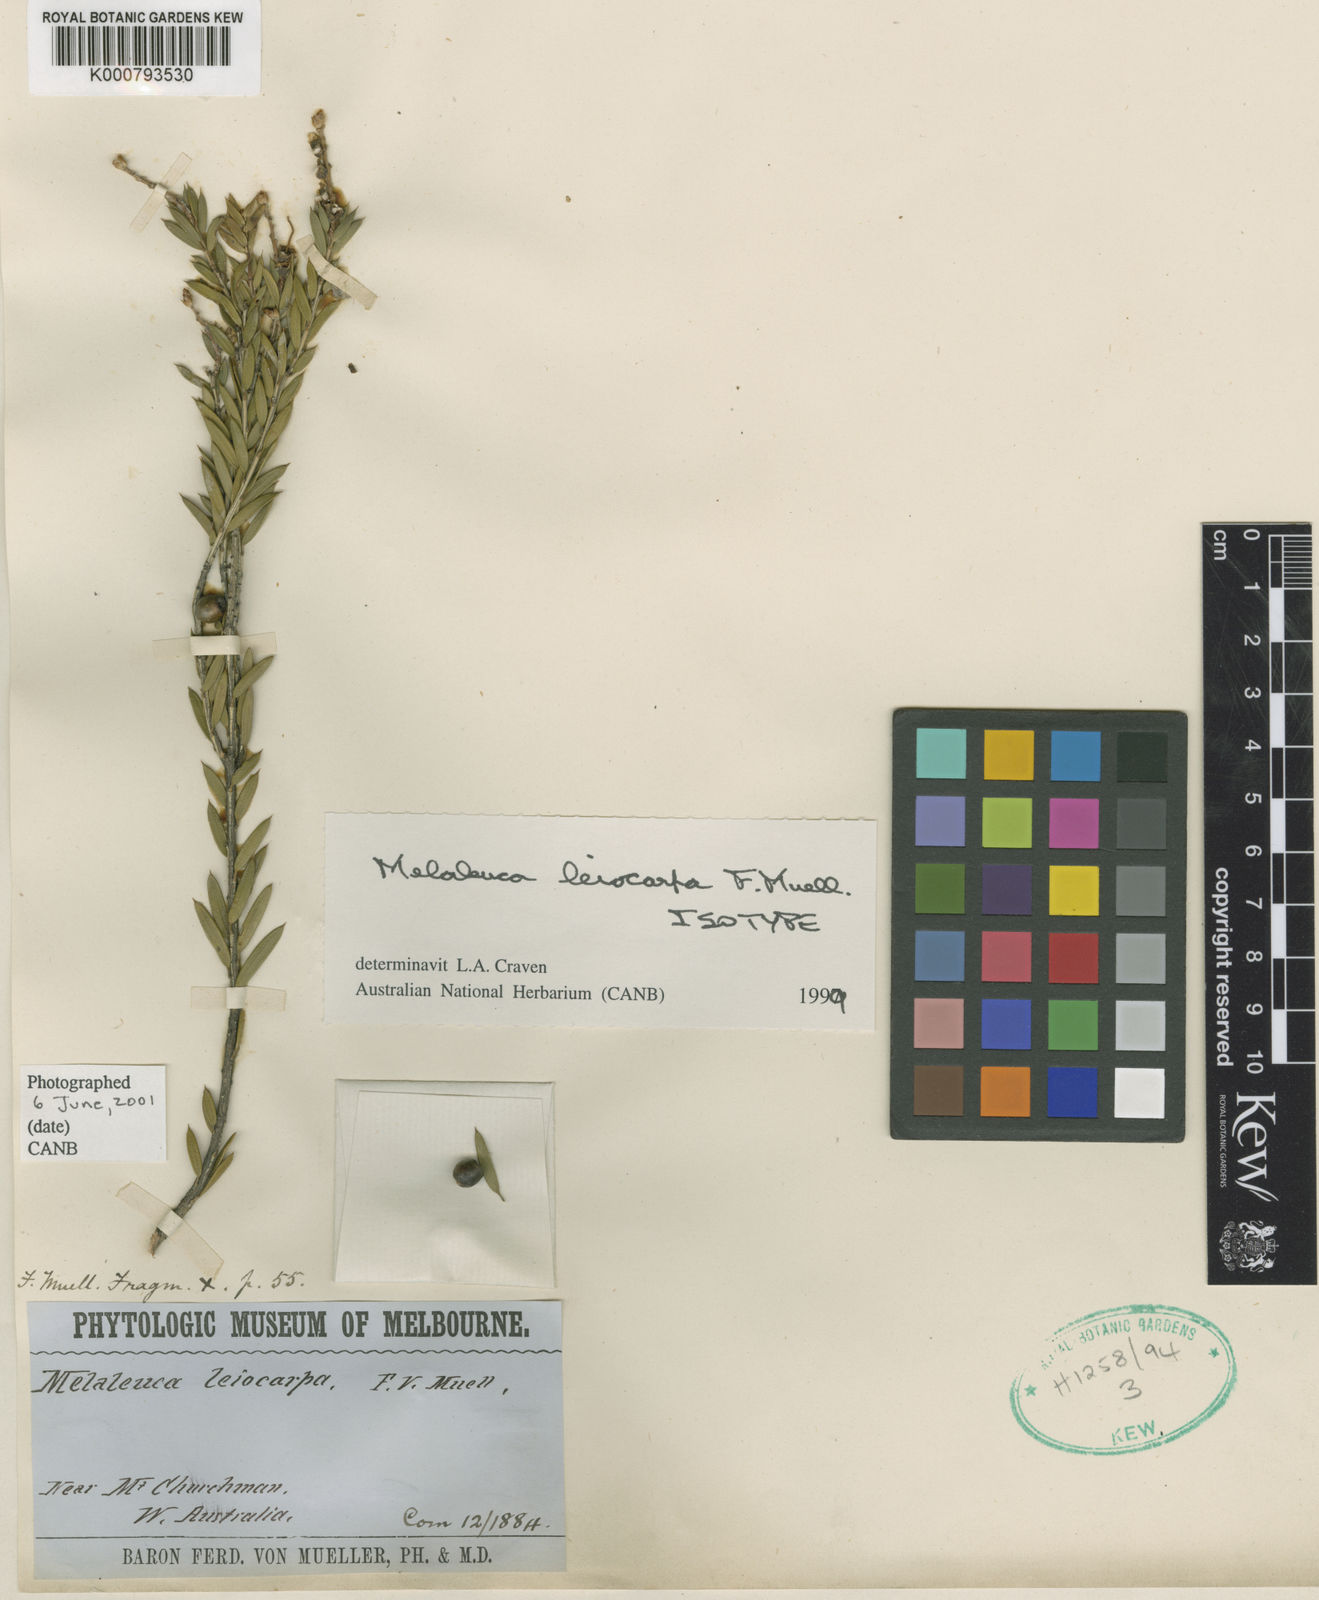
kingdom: Plantae
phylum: Tracheophyta
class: Magnoliopsida
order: Myrtales
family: Myrtaceae
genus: Melaleuca
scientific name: Melaleuca leiocarpa
